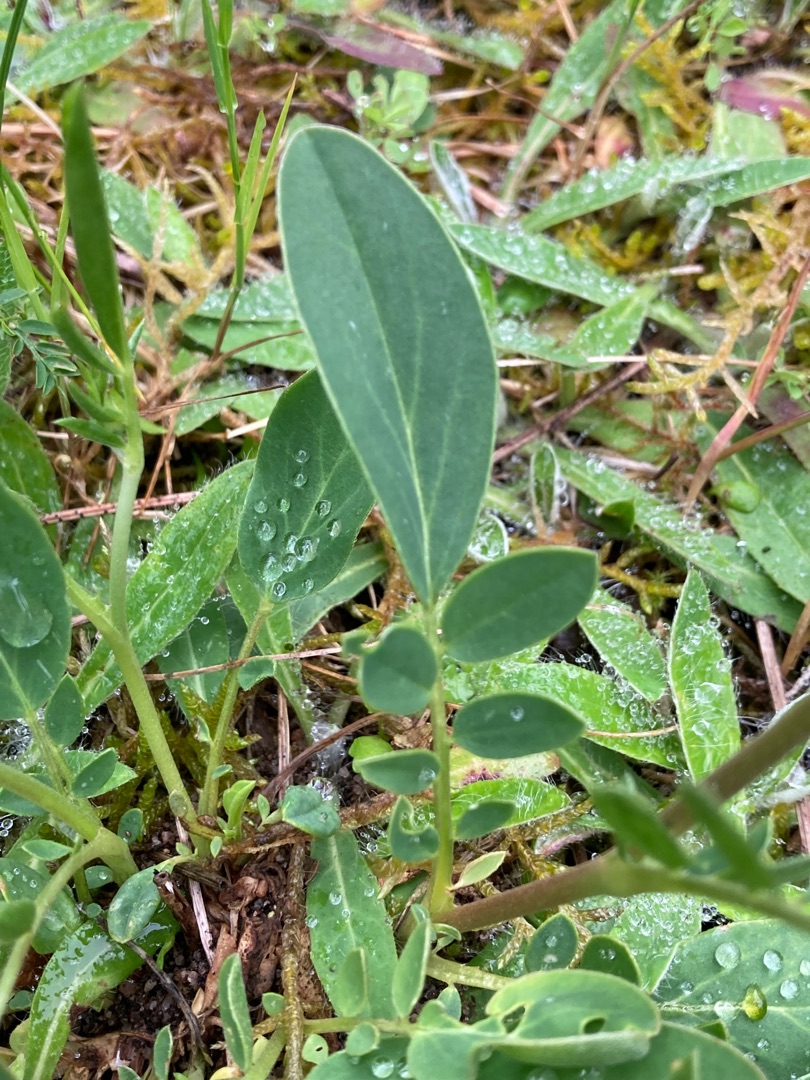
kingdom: Plantae
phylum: Tracheophyta
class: Magnoliopsida
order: Fabales
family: Fabaceae
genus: Anthyllis
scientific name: Anthyllis vulneraria
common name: Rundbælg
